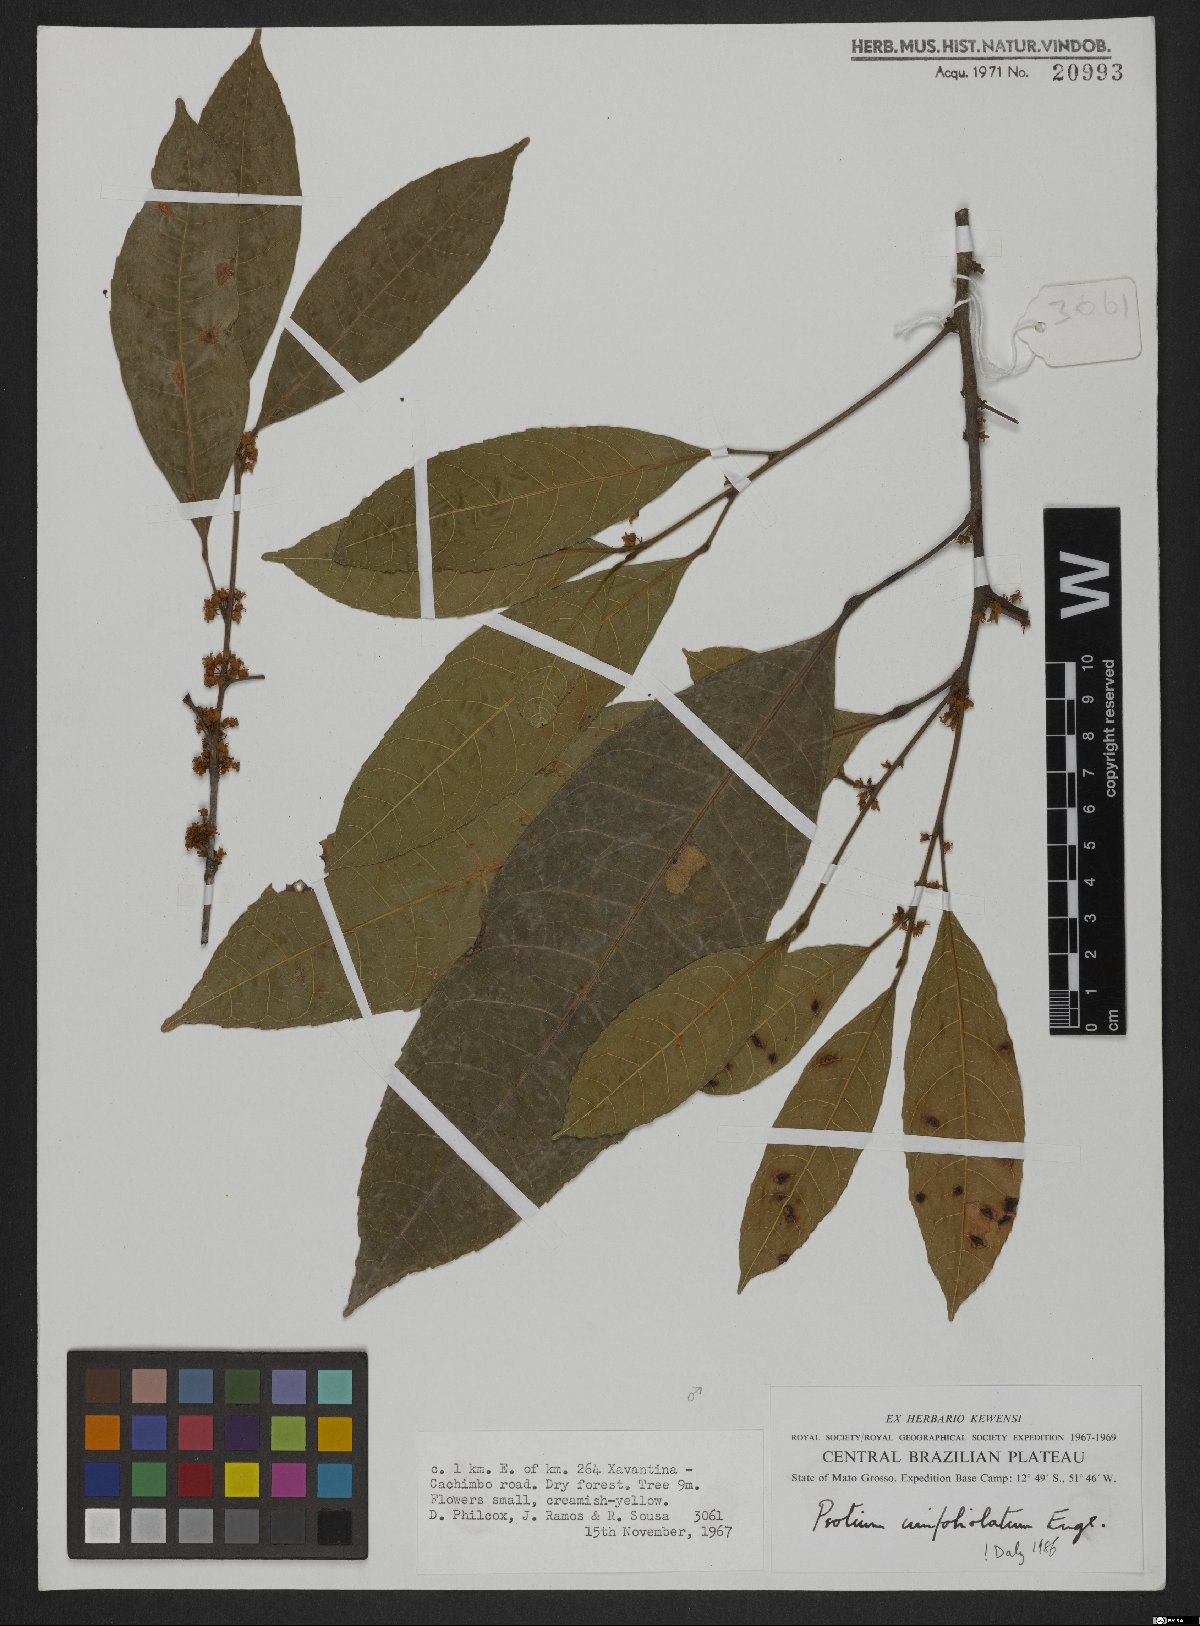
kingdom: Plantae
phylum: Tracheophyta
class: Magnoliopsida
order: Sapindales
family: Burseraceae
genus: Protium
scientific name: Protium unifoliolatum
